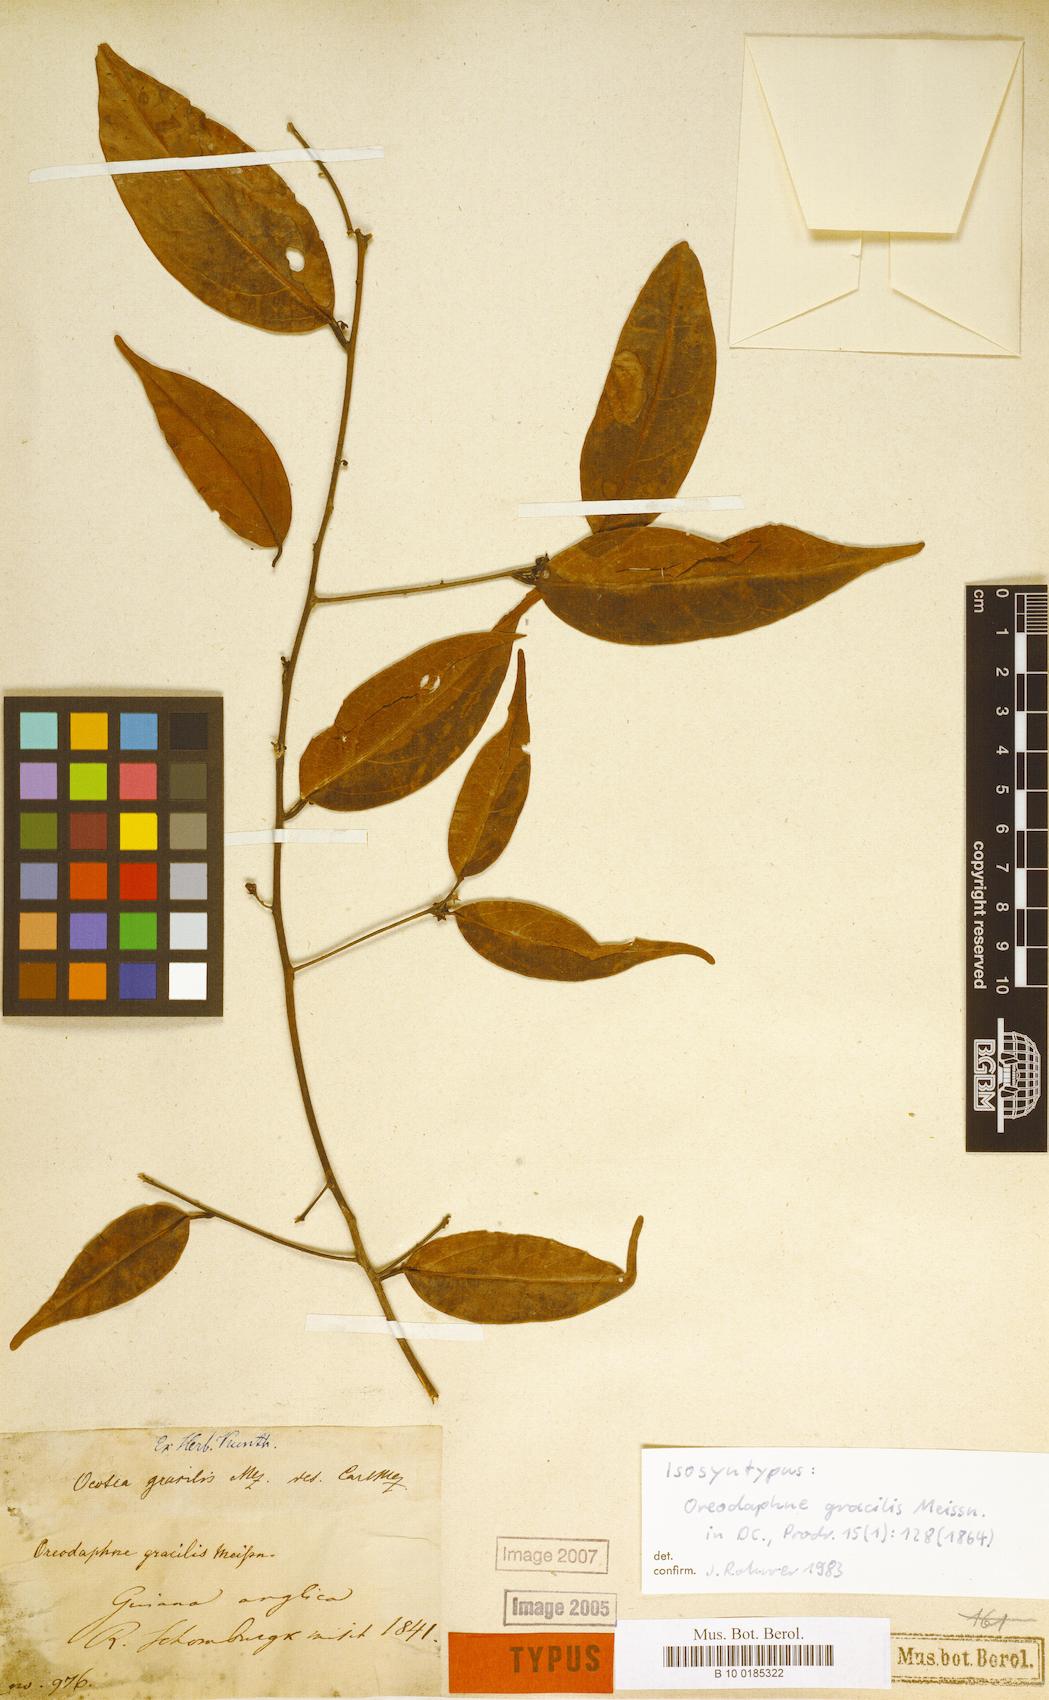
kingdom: Plantae
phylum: Tracheophyta
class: Magnoliopsida
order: Laurales
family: Lauraceae
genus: Ocotea
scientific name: Ocotea gracilis
